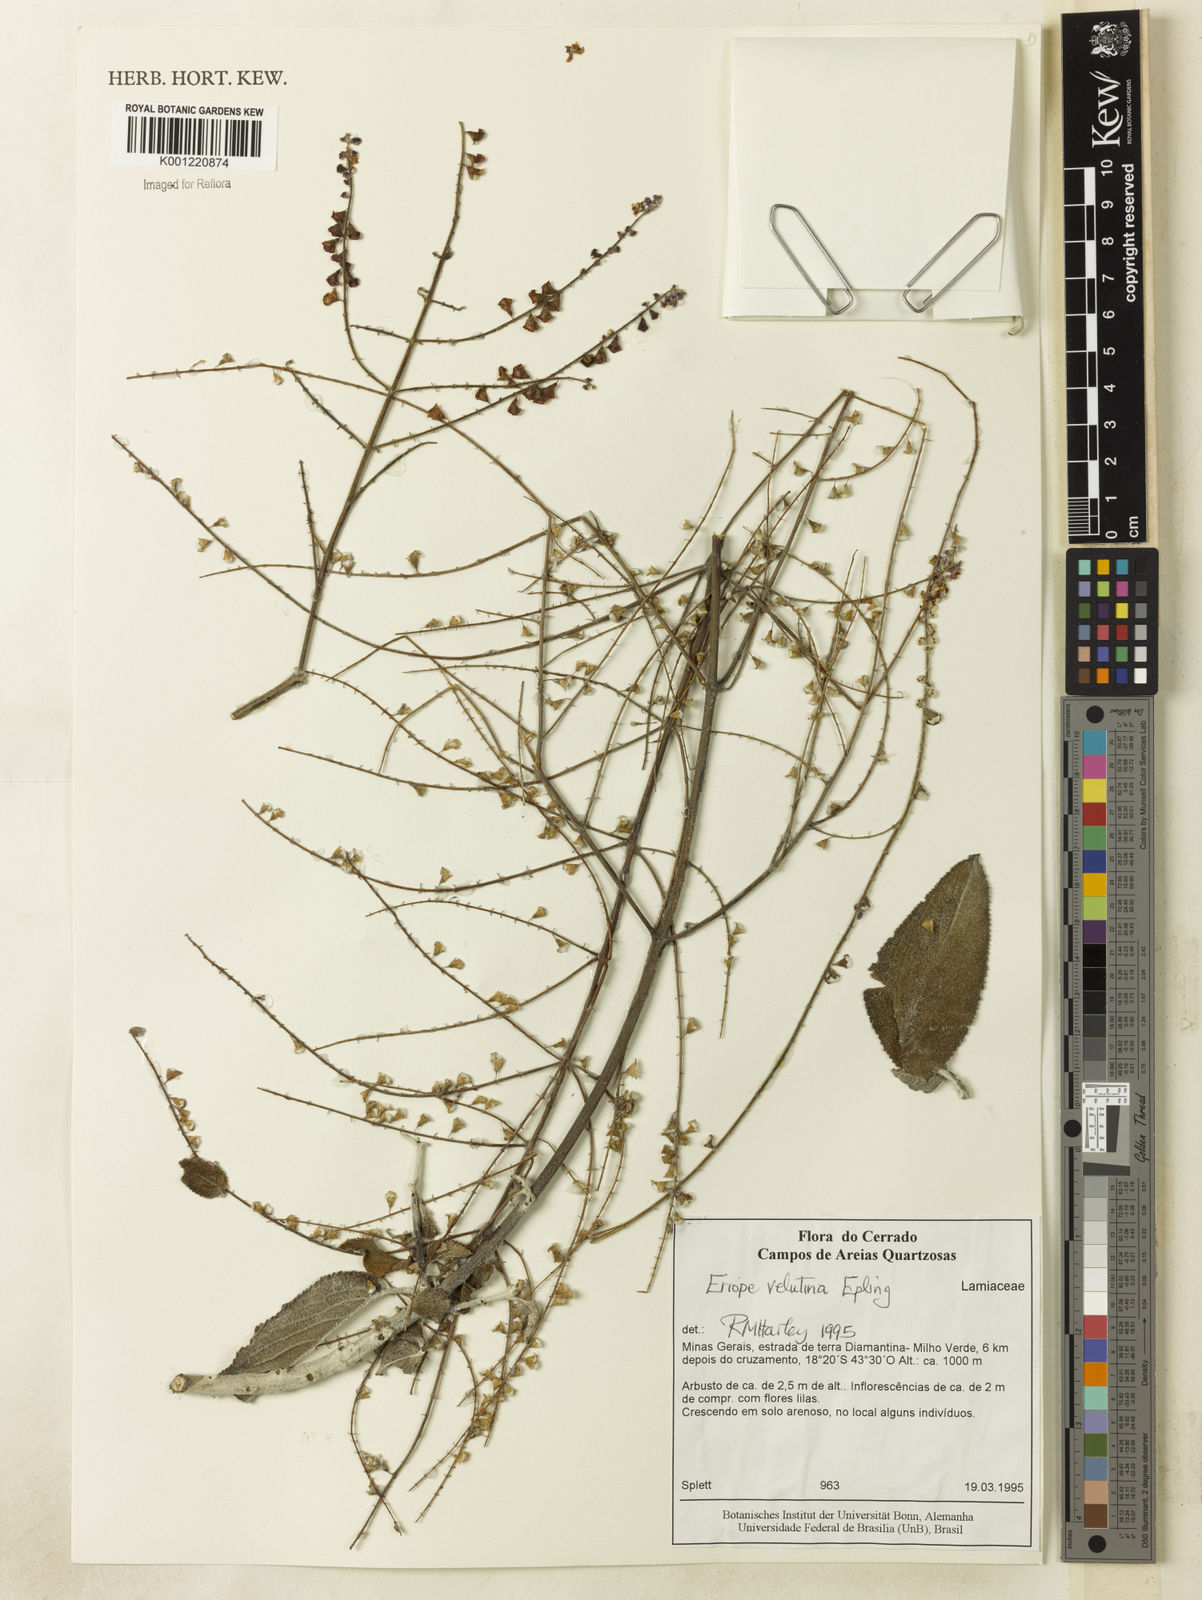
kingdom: Plantae
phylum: Tracheophyta
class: Magnoliopsida
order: Lamiales
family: Lamiaceae
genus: Eriope
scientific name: Eriope velutina
